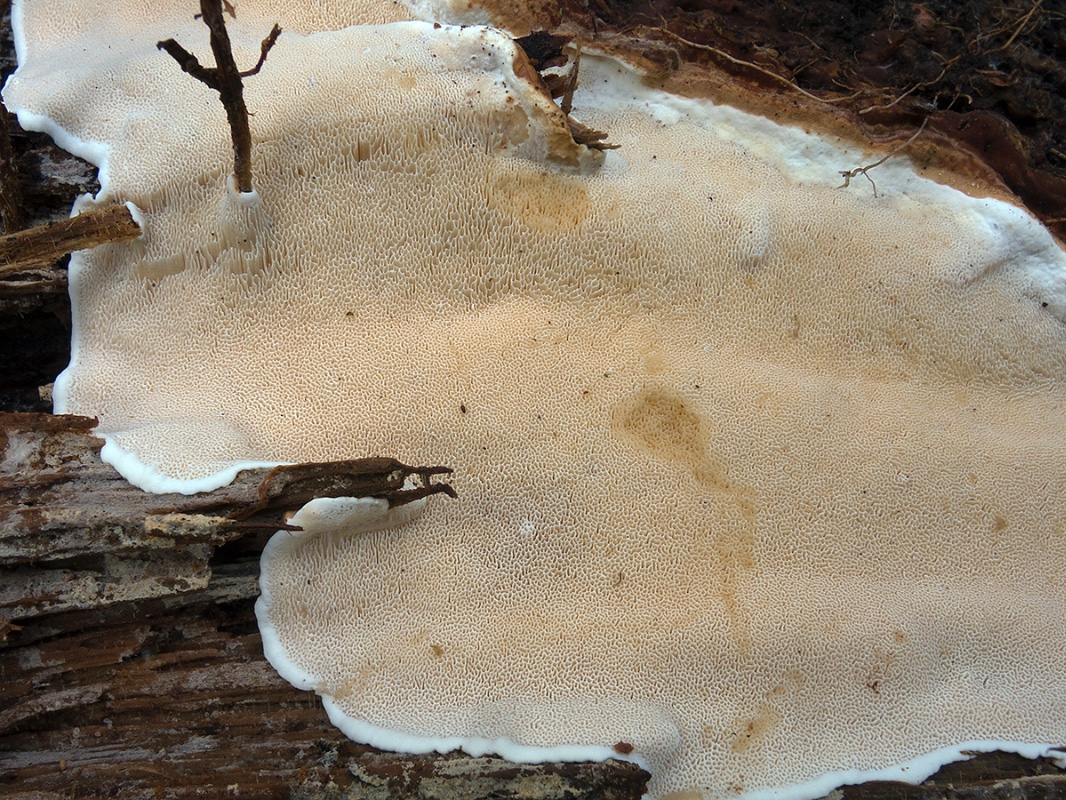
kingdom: Fungi
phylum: Basidiomycota
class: Agaricomycetes
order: Russulales
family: Bondarzewiaceae
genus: Heterobasidion
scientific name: Heterobasidion parviporum
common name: småporet rodfordærver
